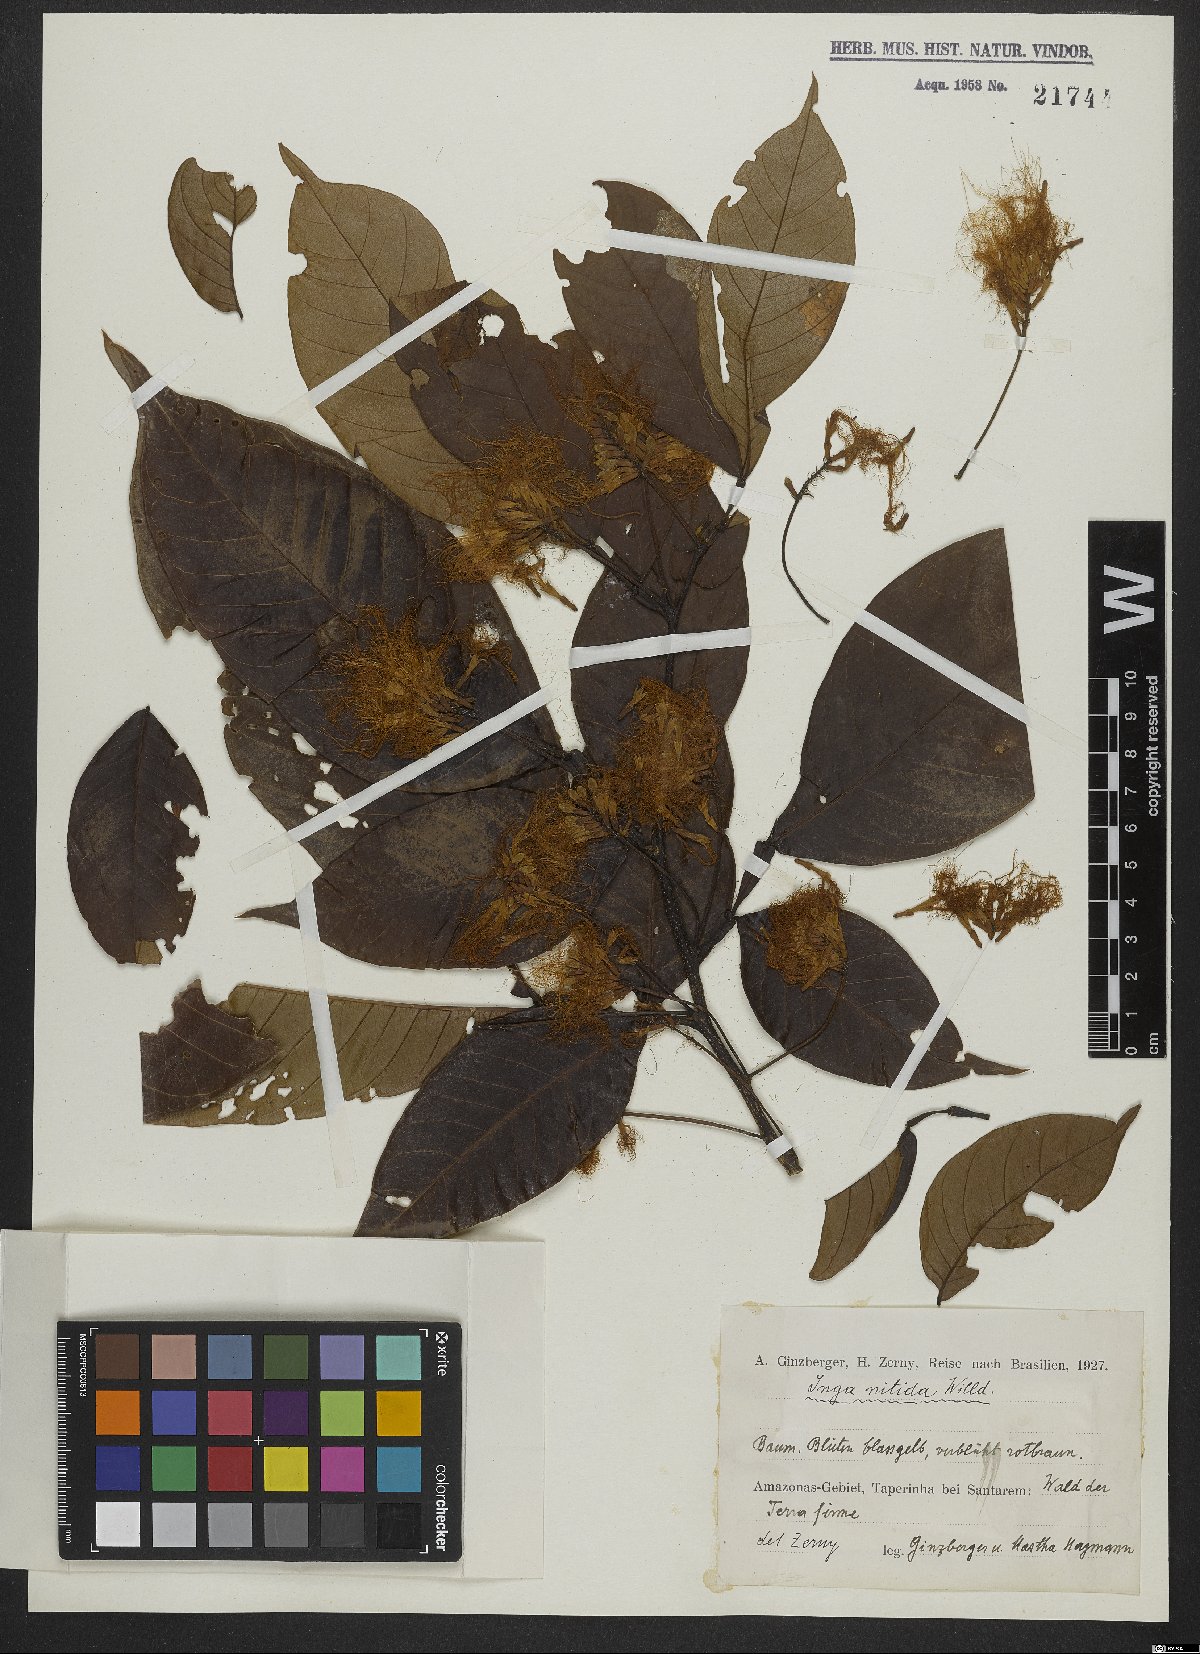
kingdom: Plantae
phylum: Tracheophyta
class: Magnoliopsida
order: Fabales
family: Fabaceae
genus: Inga
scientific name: Inga pilosula
